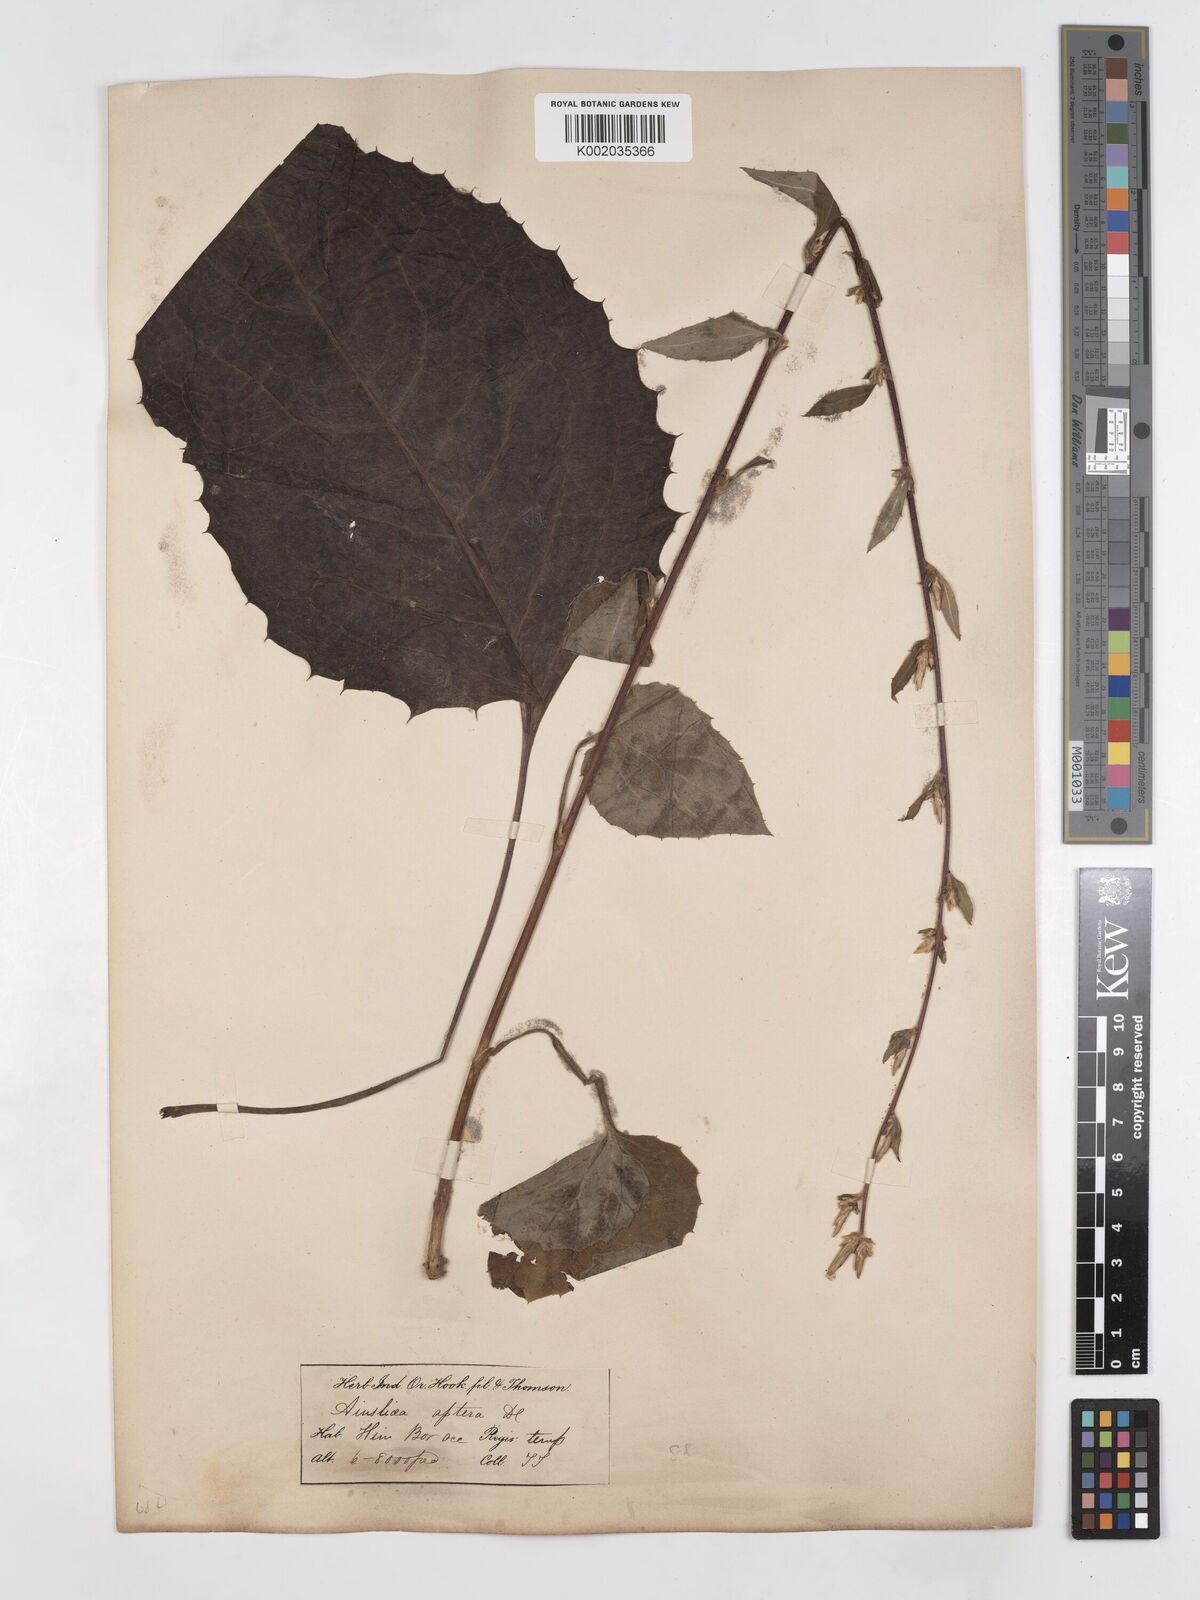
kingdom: Plantae
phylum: Tracheophyta
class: Magnoliopsida
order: Asterales
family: Asteraceae
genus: Ainsliaea
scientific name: Ainsliaea aptera
